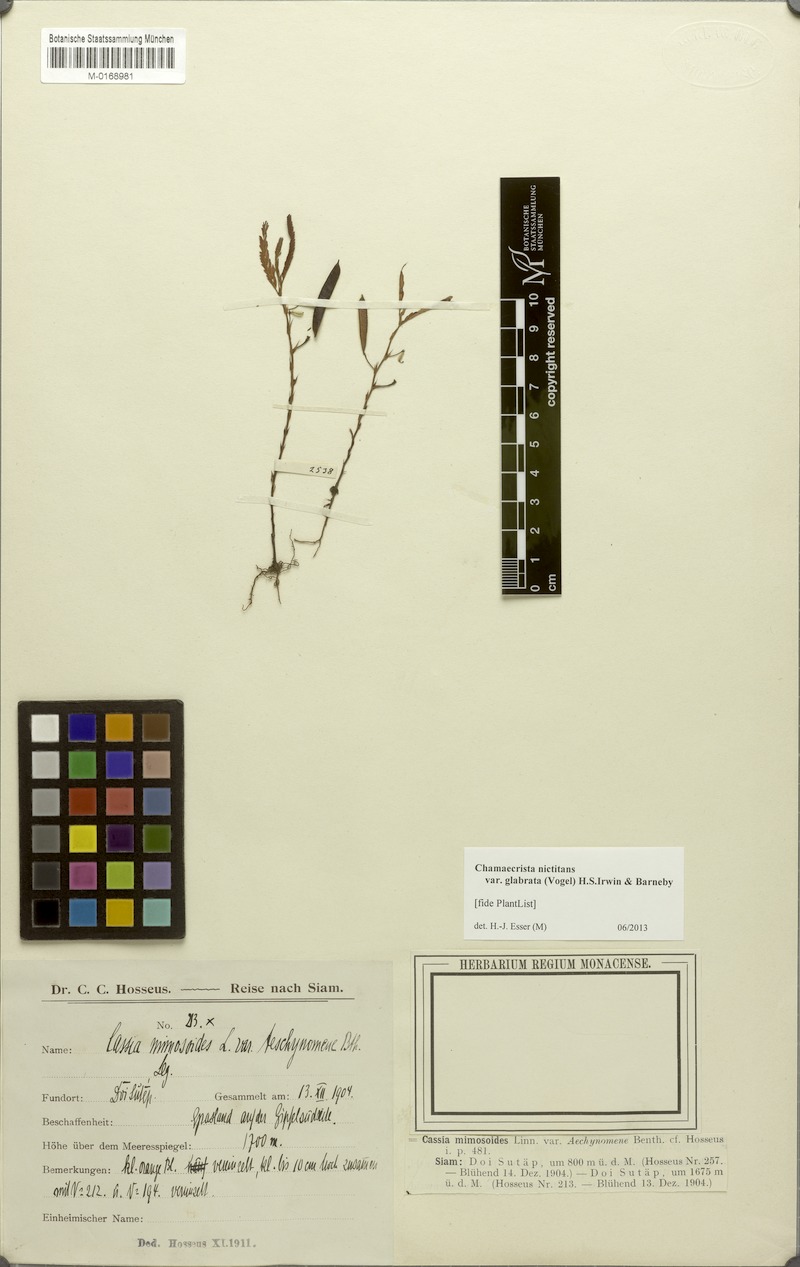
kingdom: Plantae
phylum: Tracheophyta
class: Magnoliopsida
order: Fabales
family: Fabaceae
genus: Chamaecrista
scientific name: Chamaecrista nictitans
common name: Sensitive cassia
